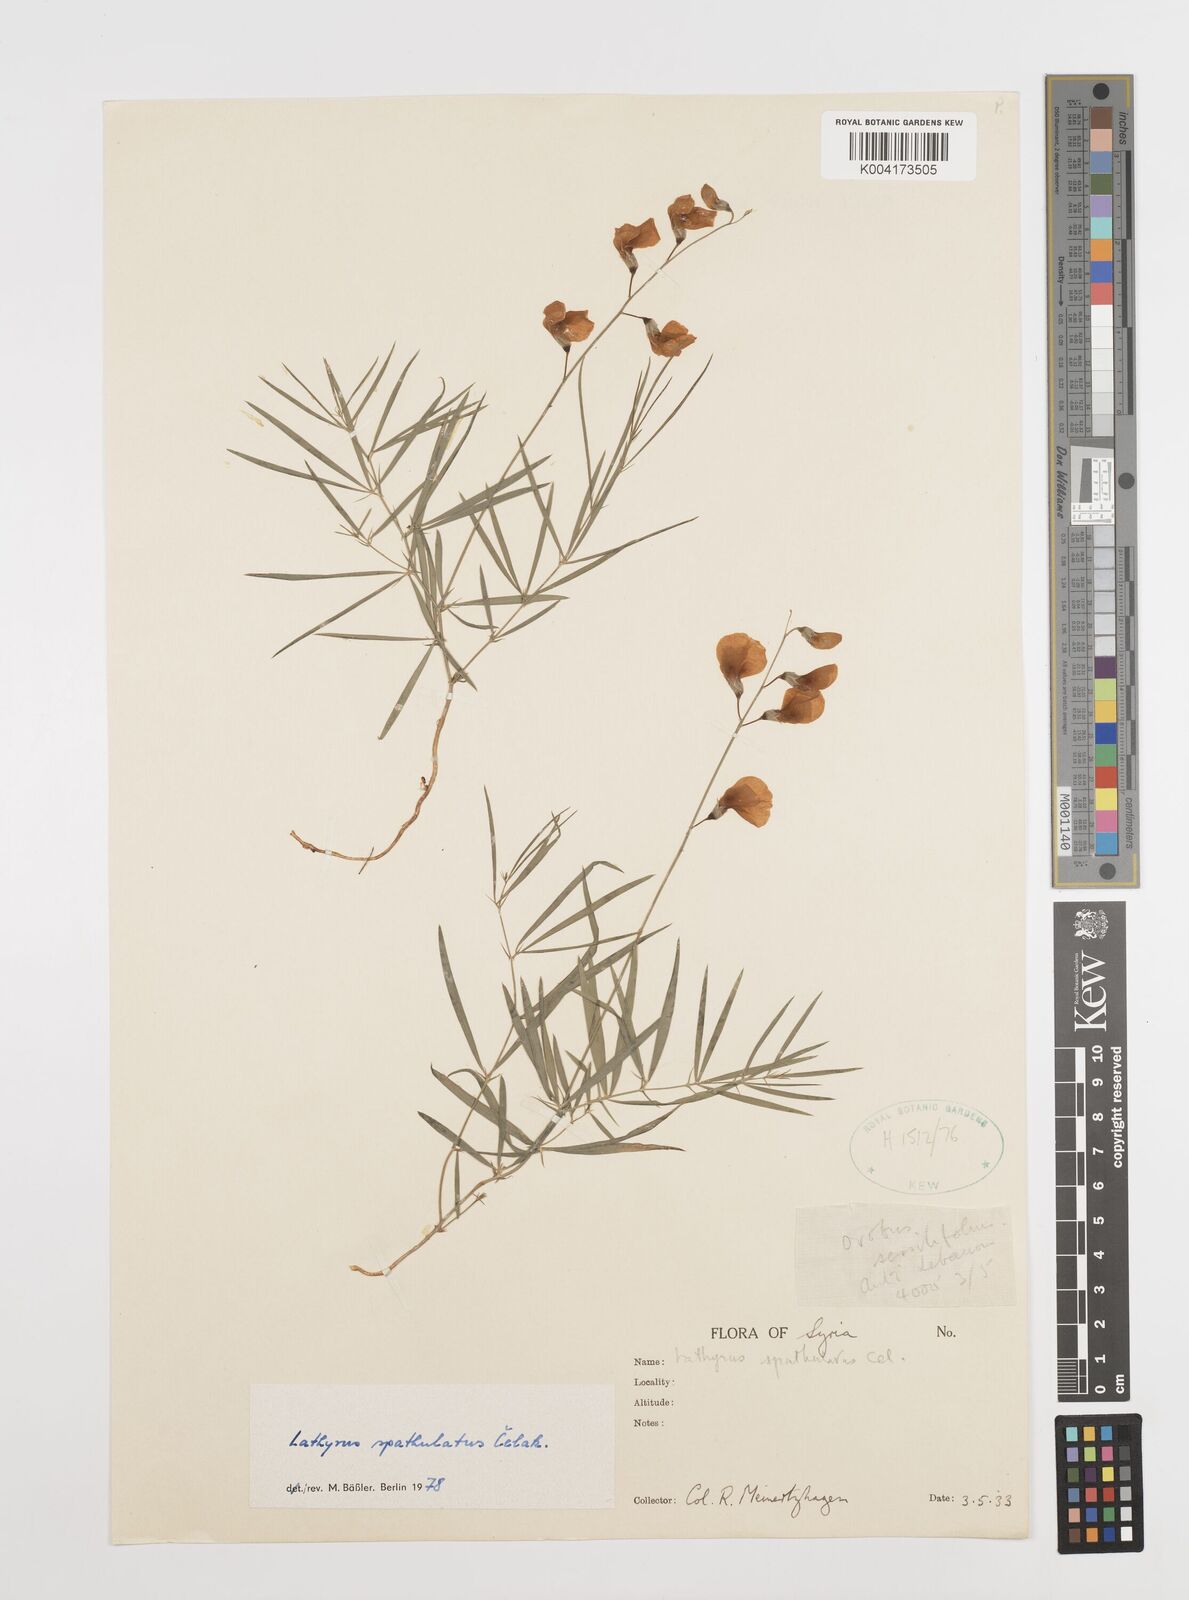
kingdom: Plantae
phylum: Tracheophyta
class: Magnoliopsida
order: Fabales
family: Fabaceae
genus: Lathyrus
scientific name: Lathyrus spathulatus
